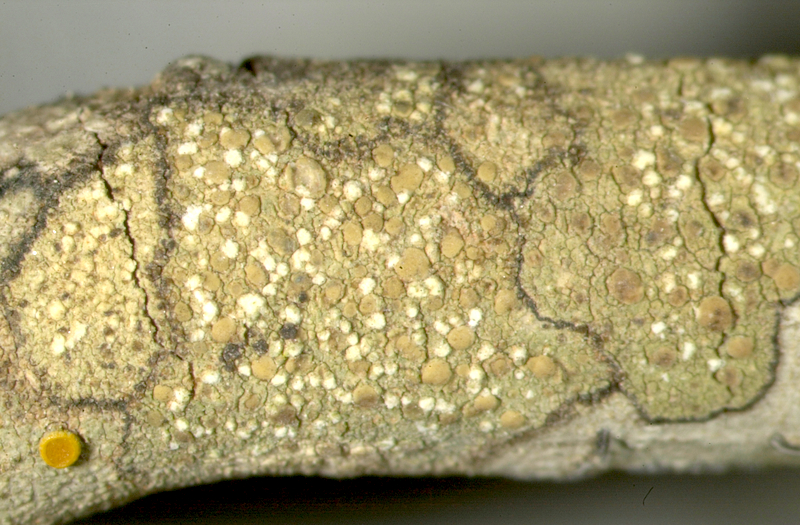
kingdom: Fungi
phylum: Ascomycota
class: Lecanoromycetes
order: Teloschistales
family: Teloschistaceae
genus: Caloplaca
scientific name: Caloplaca
